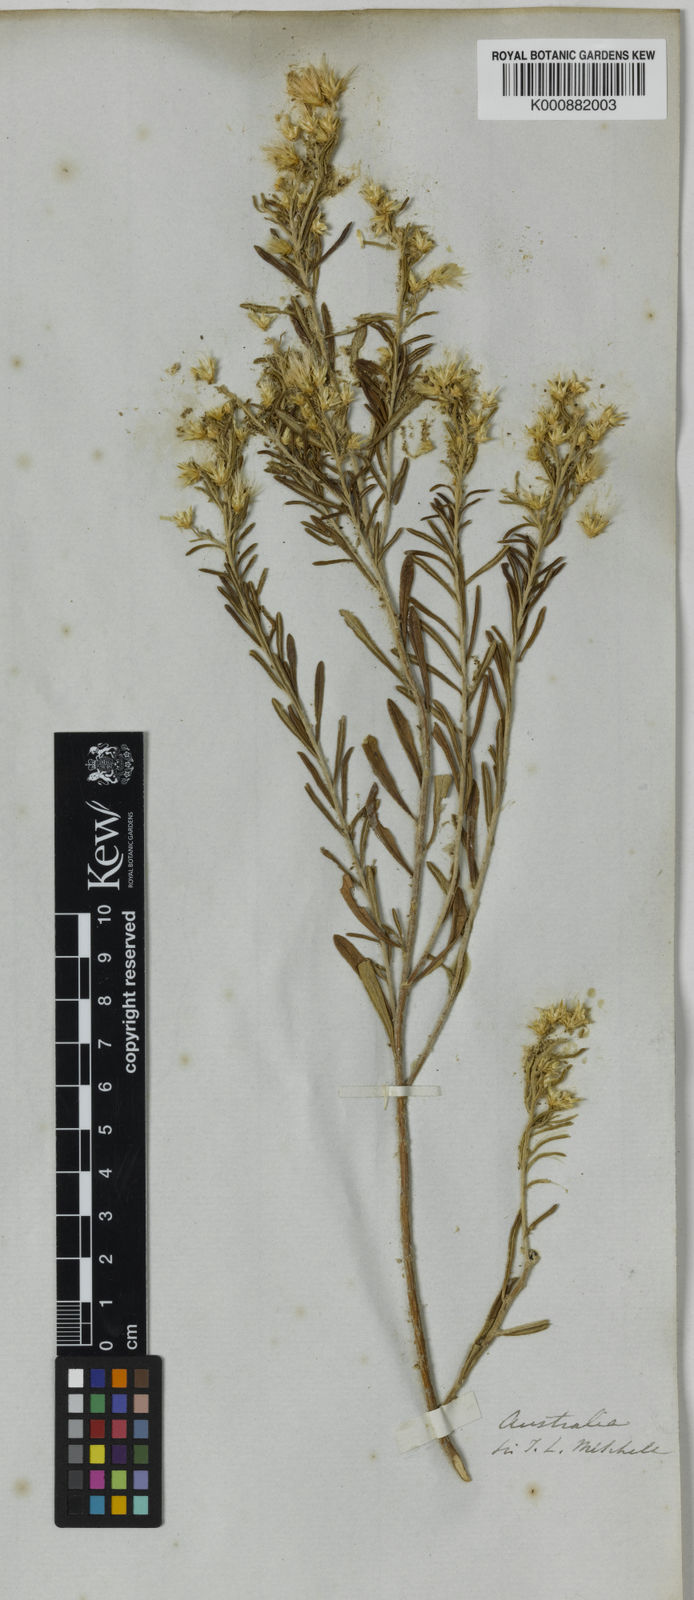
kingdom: Plantae
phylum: Tracheophyta
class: Magnoliopsida
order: Asterales
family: Asteraceae
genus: Olearia
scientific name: Olearia subspicata
